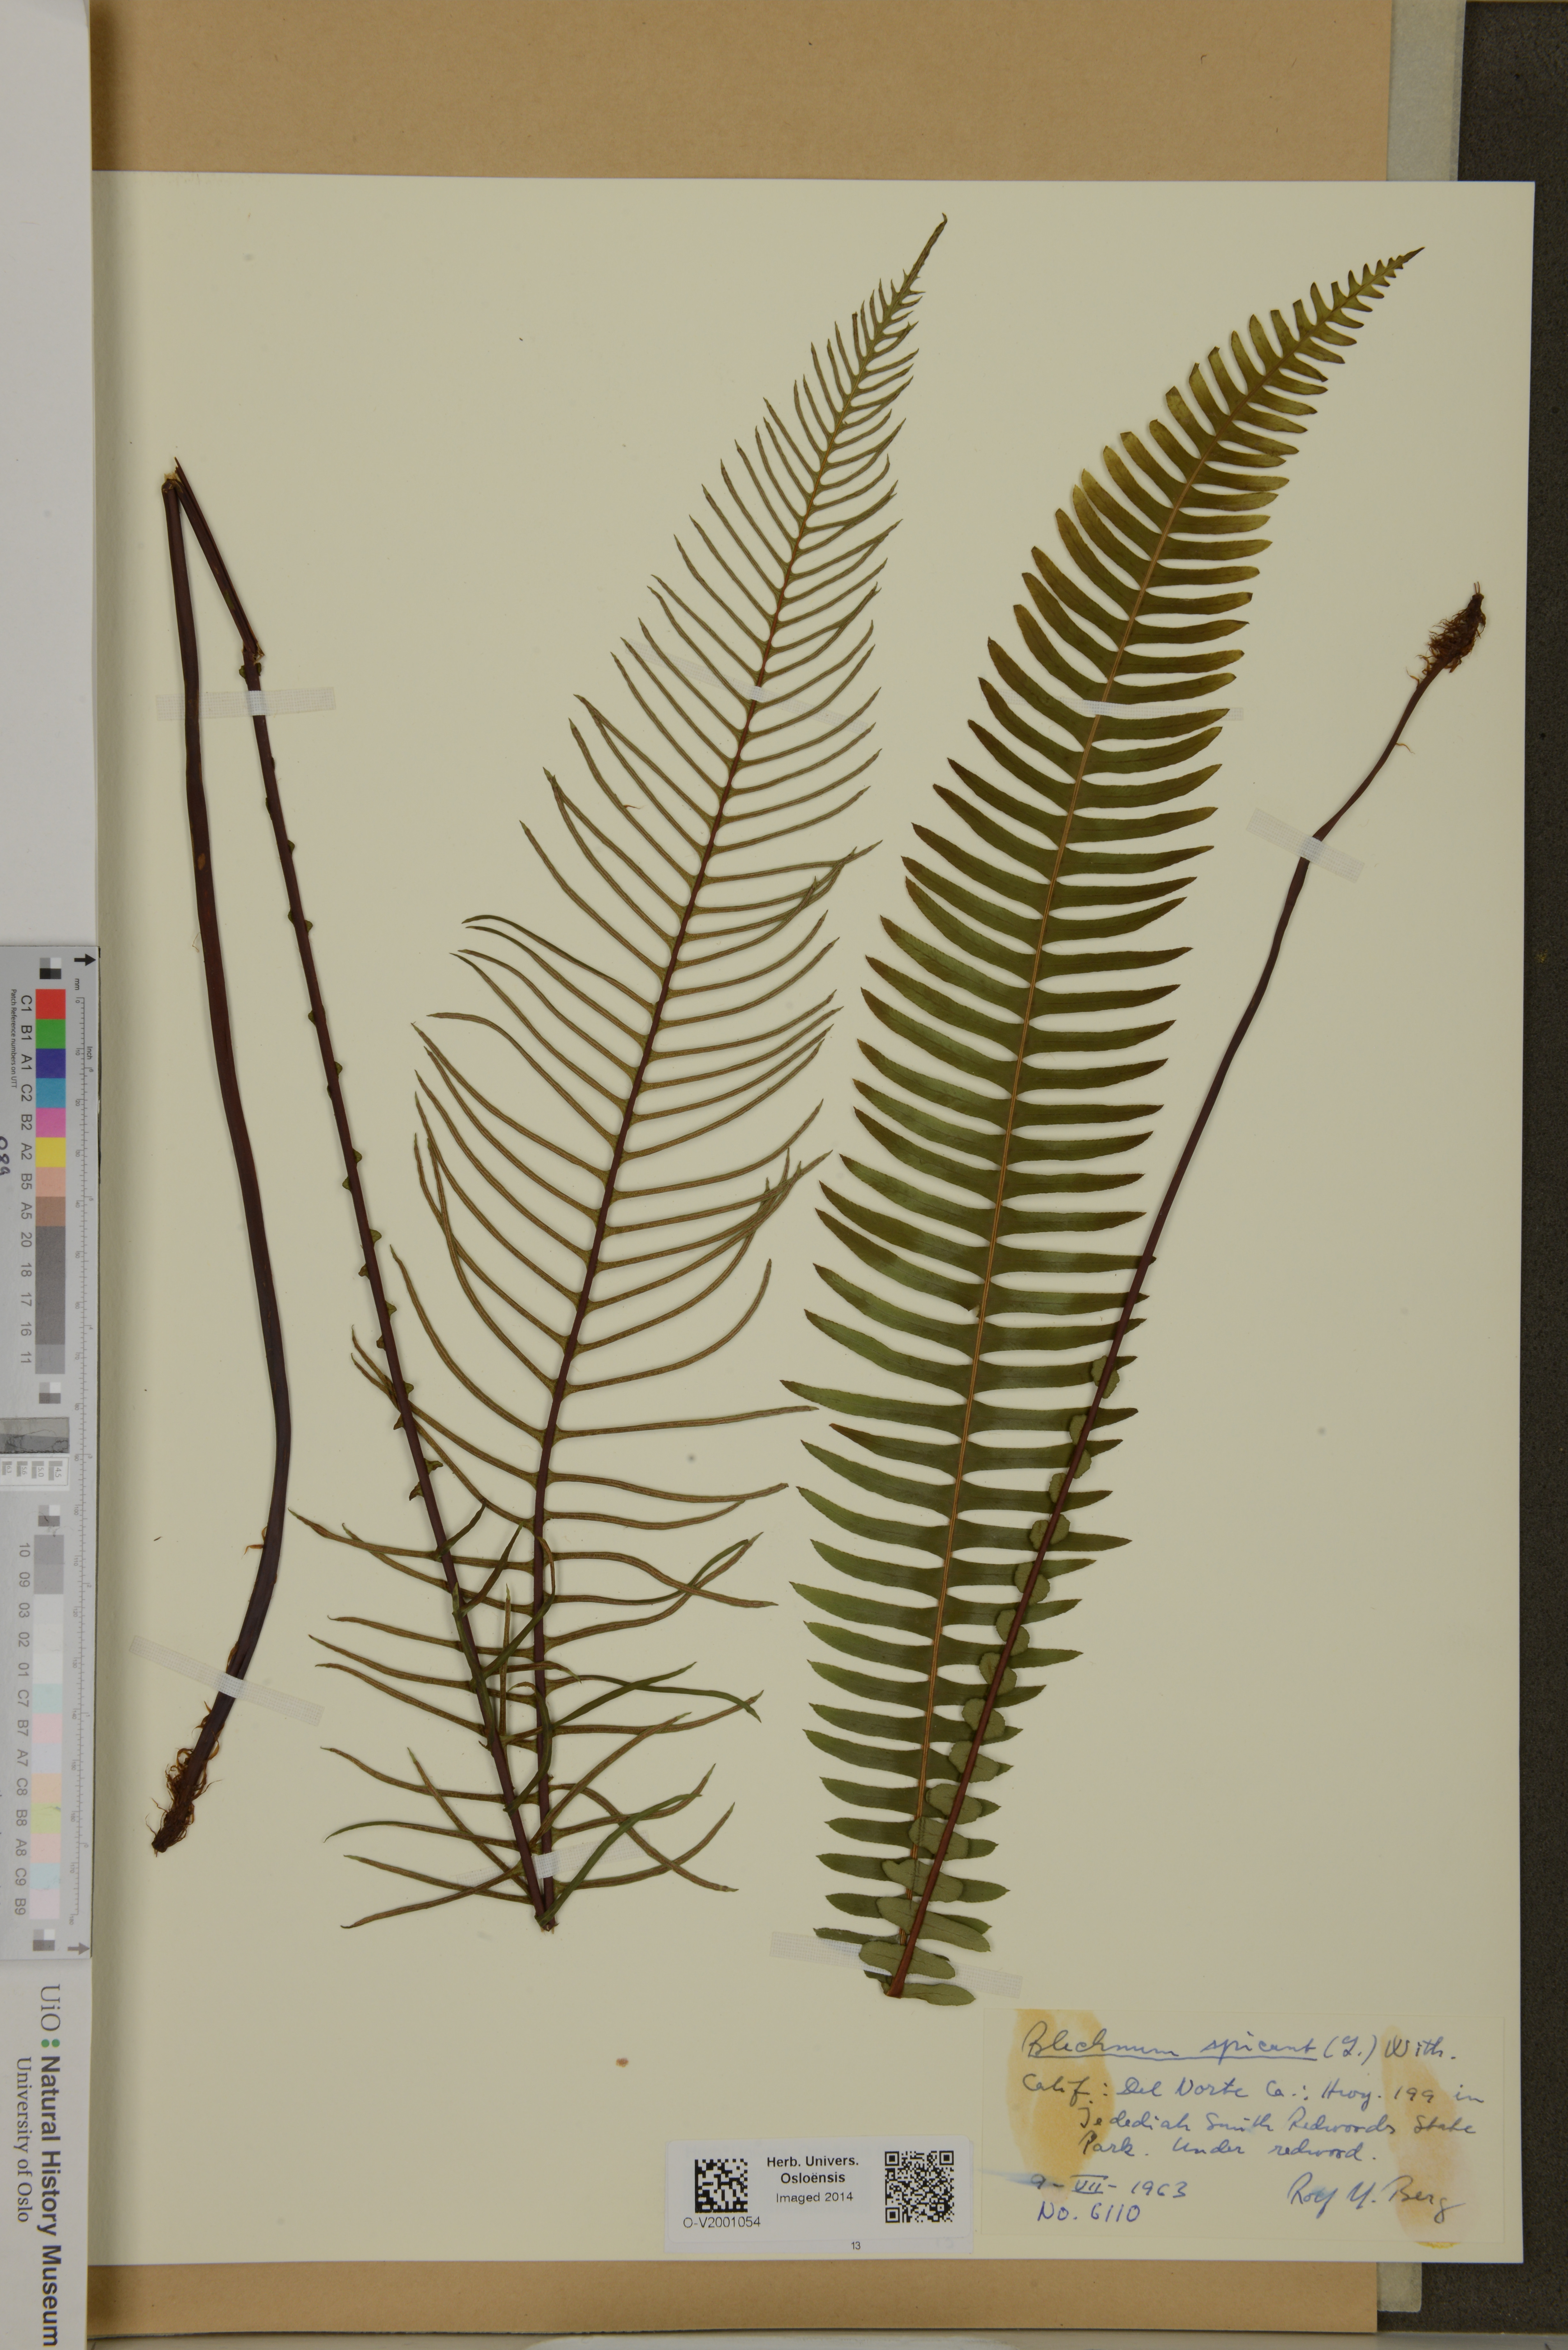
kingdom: Plantae
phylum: Tracheophyta
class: Polypodiopsida
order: Polypodiales
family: Blechnaceae
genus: Struthiopteris
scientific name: Struthiopteris spicant
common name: Deer fern
